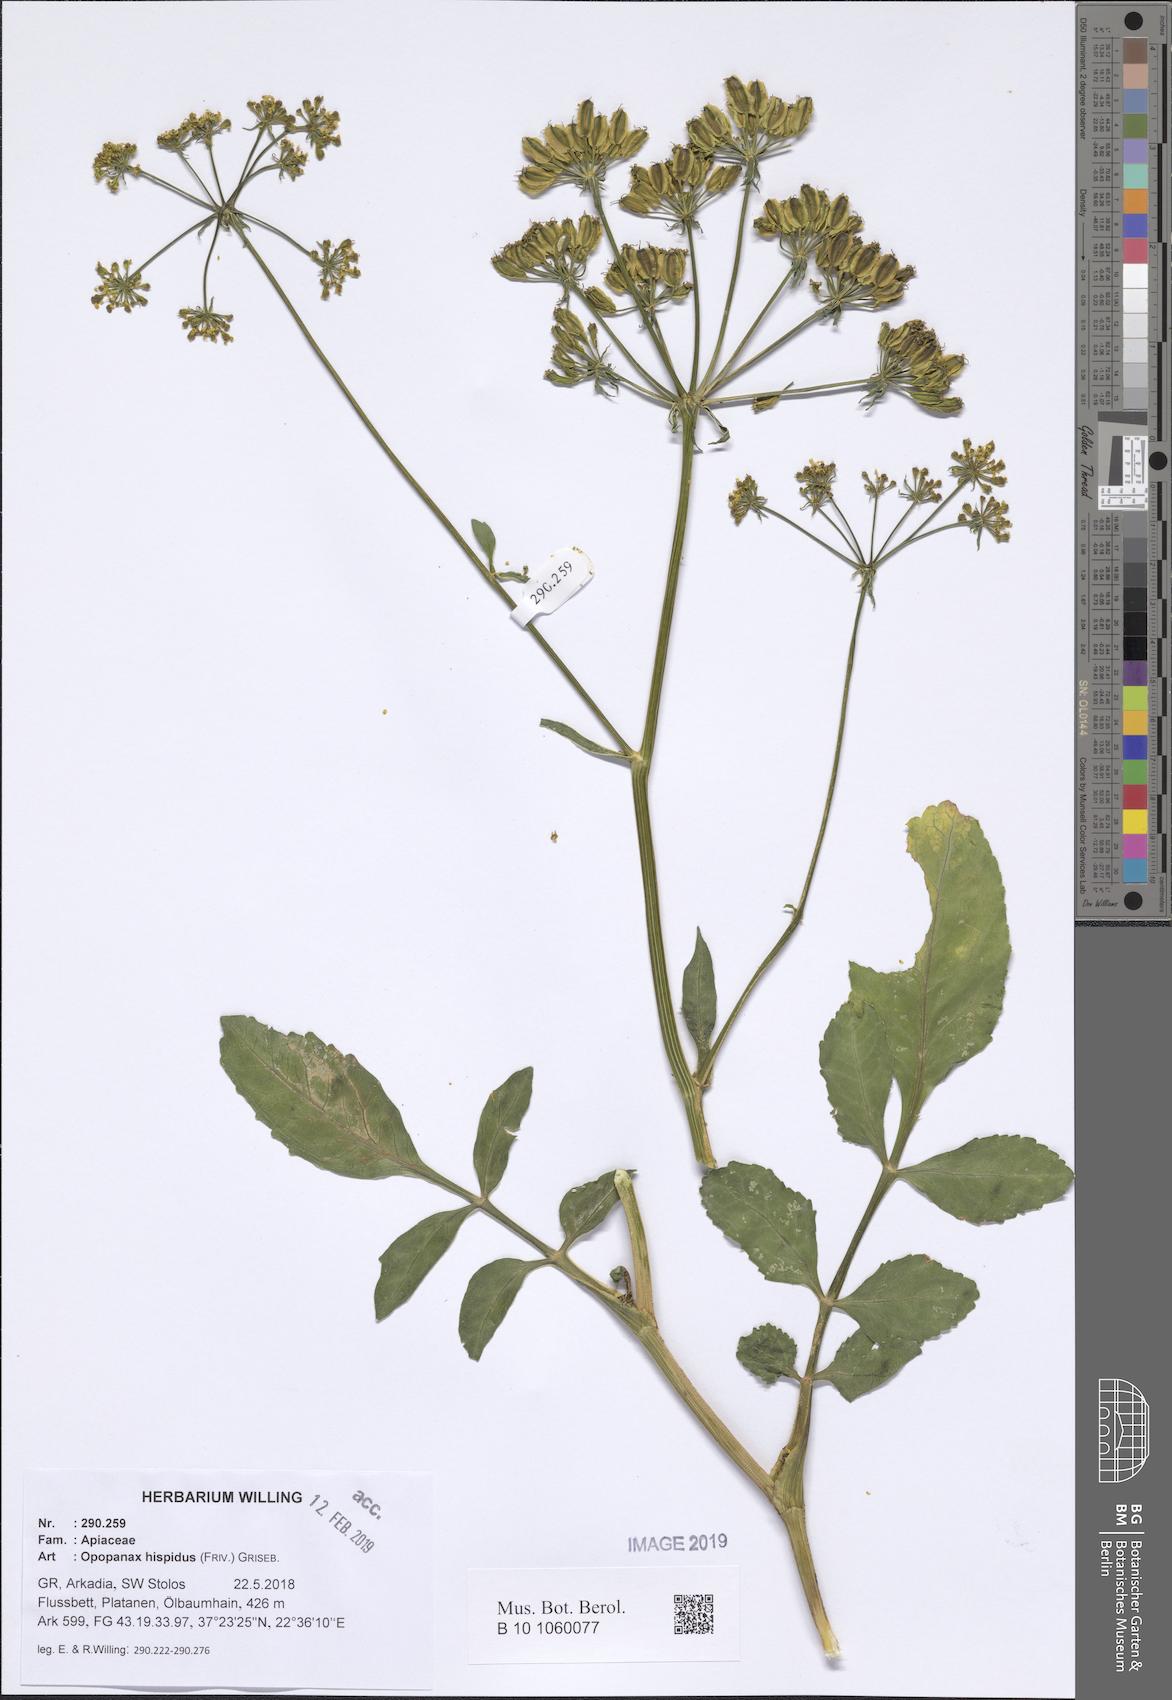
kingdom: Plantae
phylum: Tracheophyta
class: Magnoliopsida
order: Apiales
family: Apiaceae
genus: Opopanax
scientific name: Opopanax hispidus
